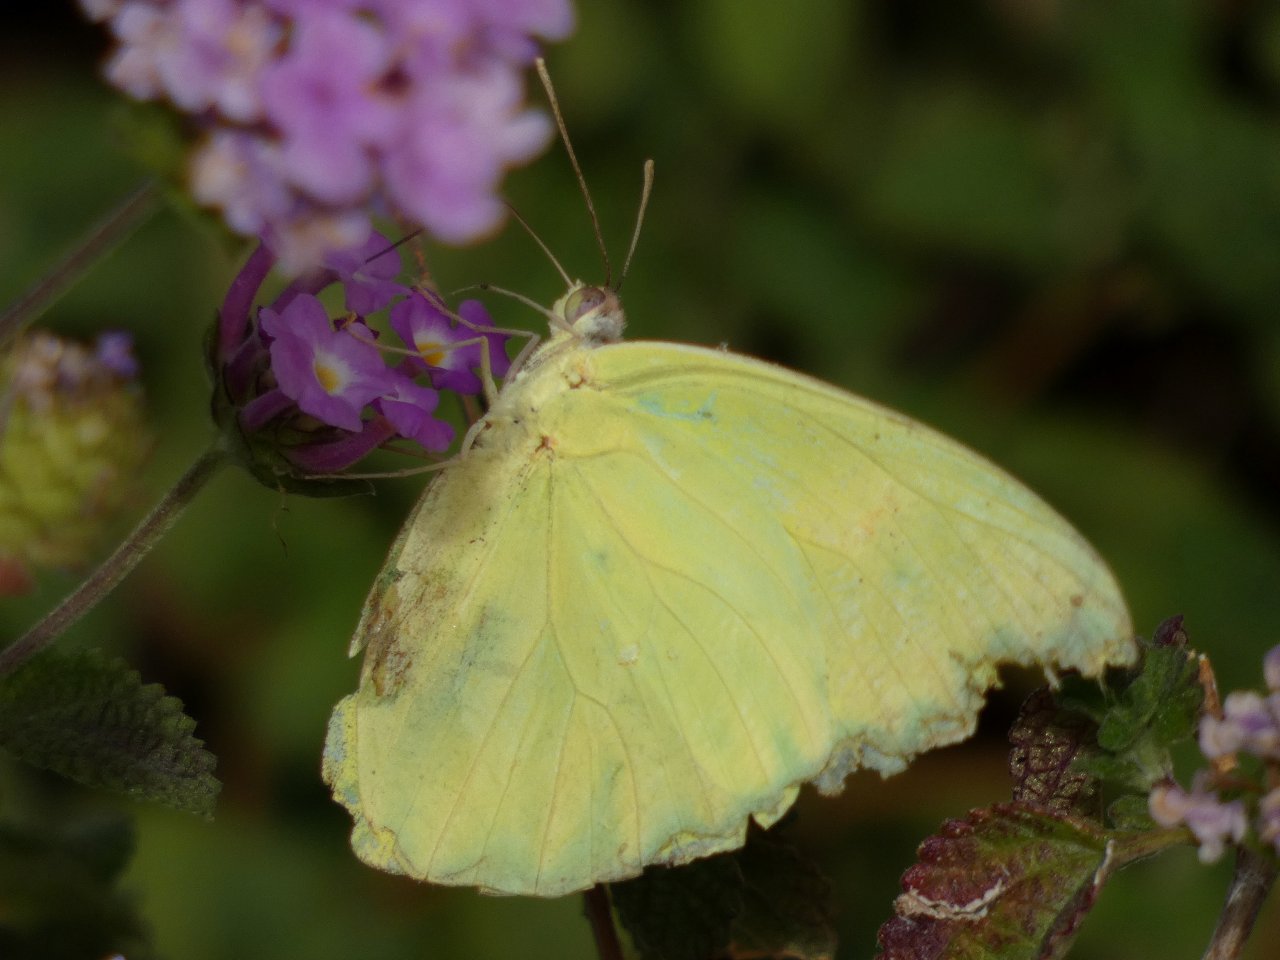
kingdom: Animalia
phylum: Arthropoda
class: Insecta
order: Lepidoptera
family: Pieridae
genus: Phoebis
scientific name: Phoebis sennae
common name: Cloudless Sulphur
